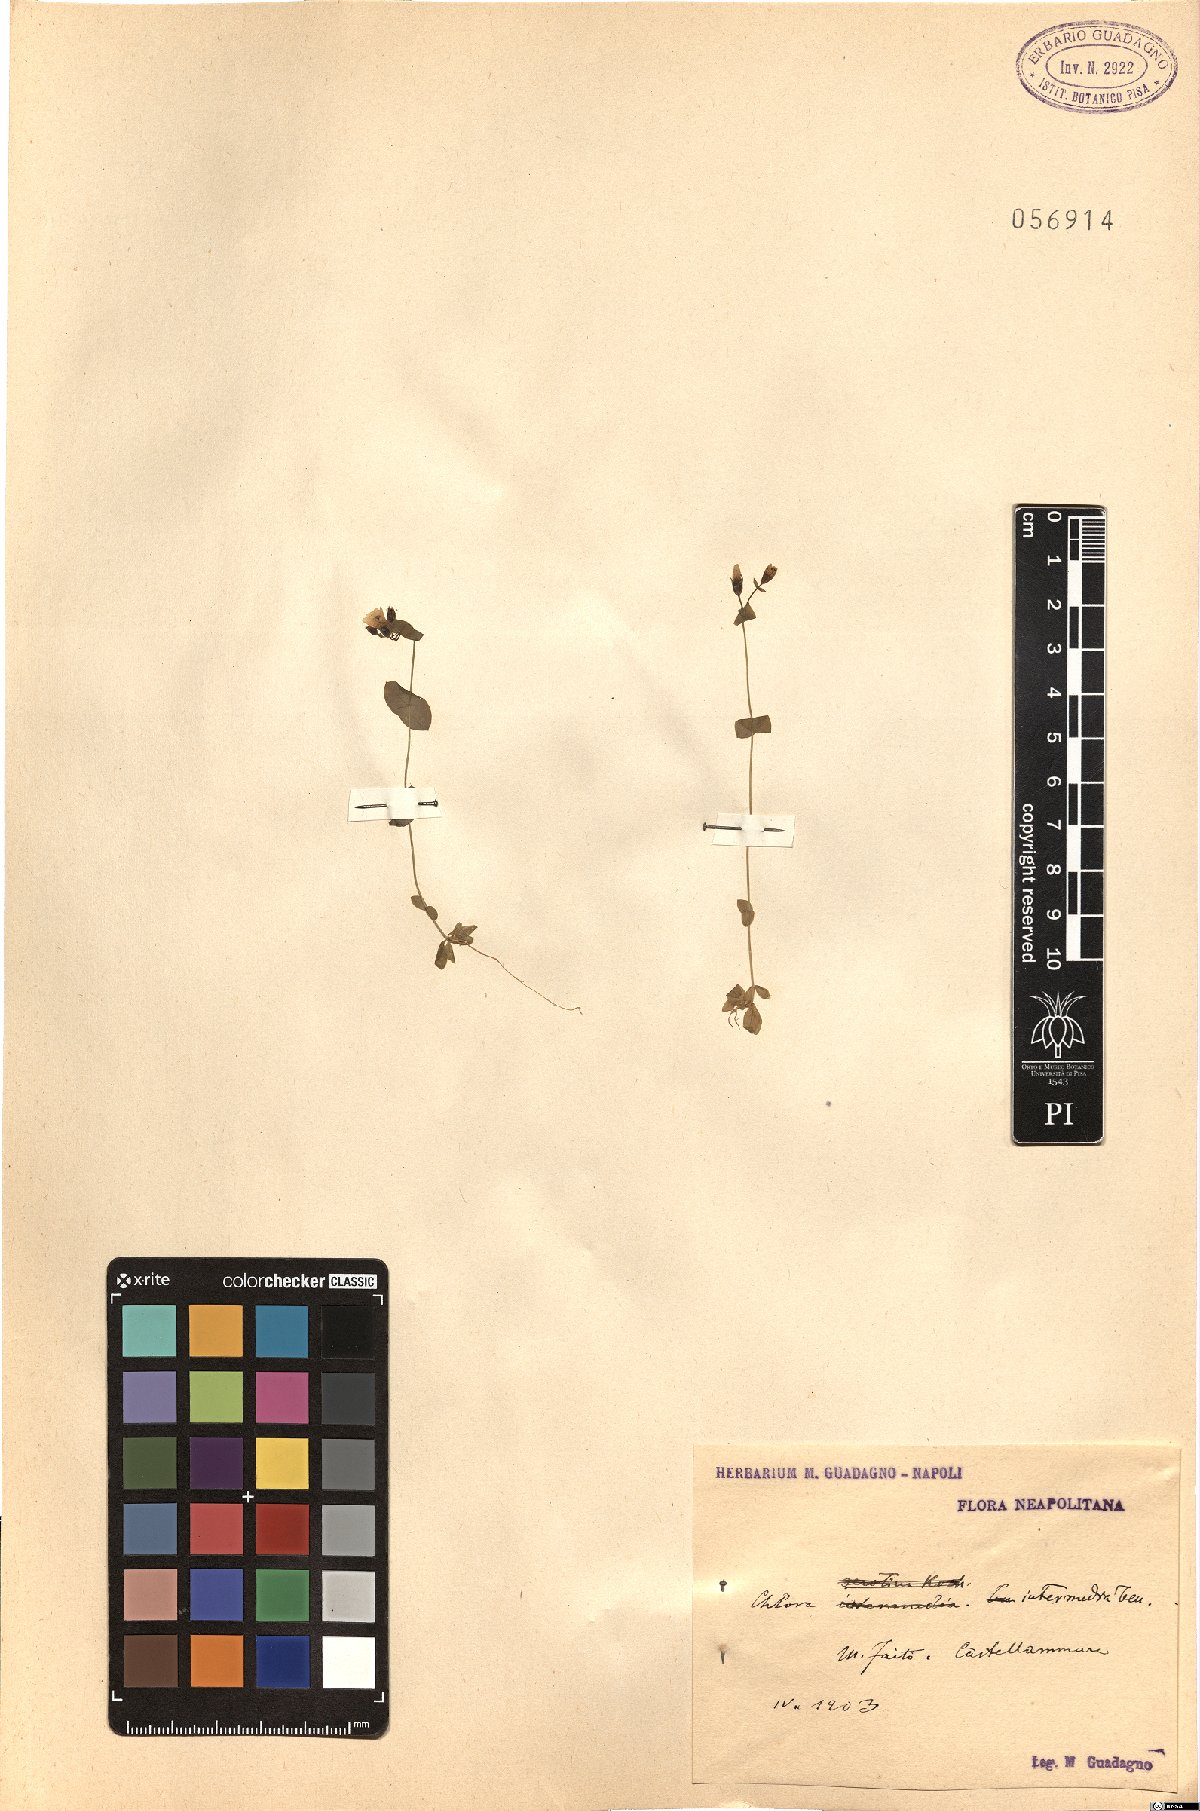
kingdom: Plantae
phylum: Tracheophyta
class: Magnoliopsida
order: Gentianales
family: Gentianaceae
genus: Blackstonia
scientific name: Blackstonia perfoliata
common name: Yellow-wort
